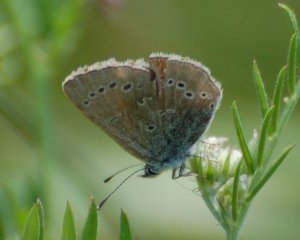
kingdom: Animalia
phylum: Arthropoda
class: Insecta
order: Lepidoptera
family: Lycaenidae
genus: Glaucopsyche
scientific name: Glaucopsyche lygdamus
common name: Silvery Blue
